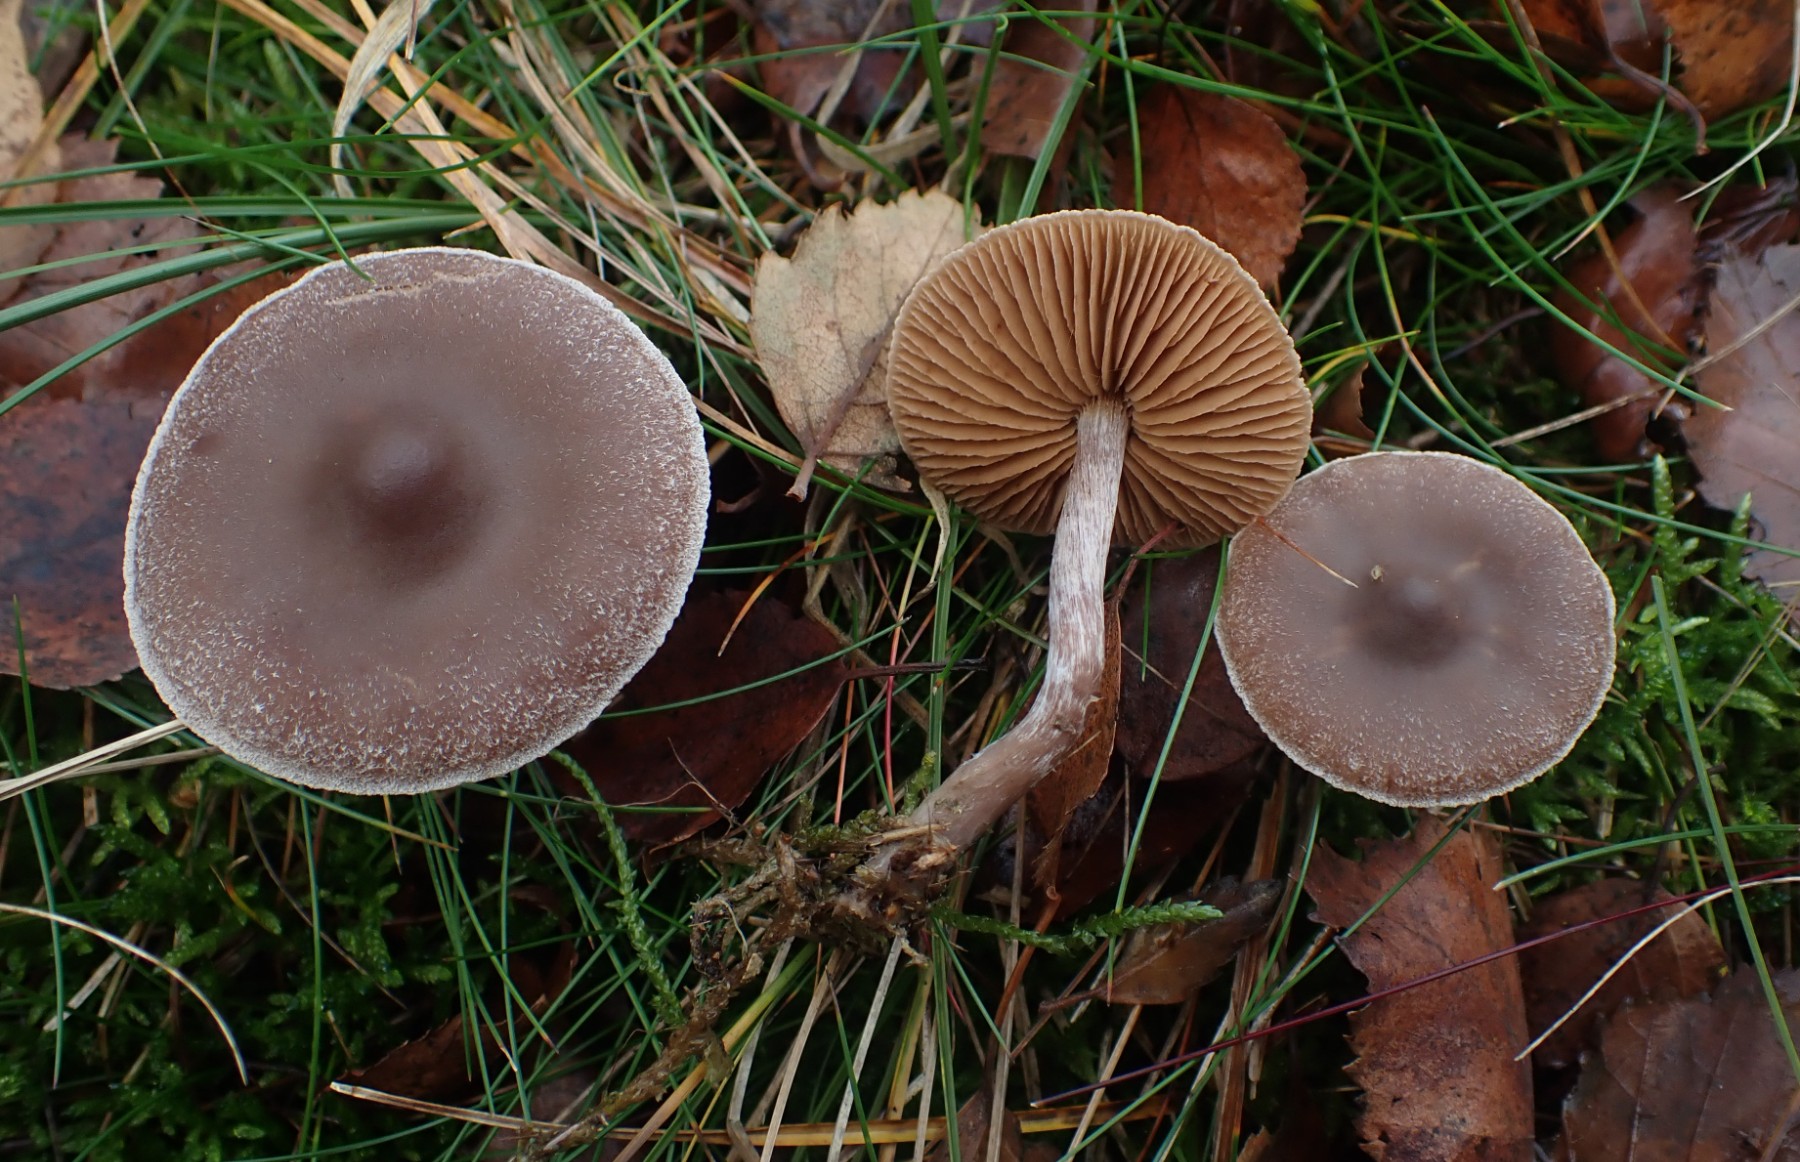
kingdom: Fungi
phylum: Basidiomycota
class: Agaricomycetes
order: Agaricales
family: Cortinariaceae
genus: Cortinarius
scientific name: Cortinarius hemitrichus
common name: hvidfnugget slørhat
